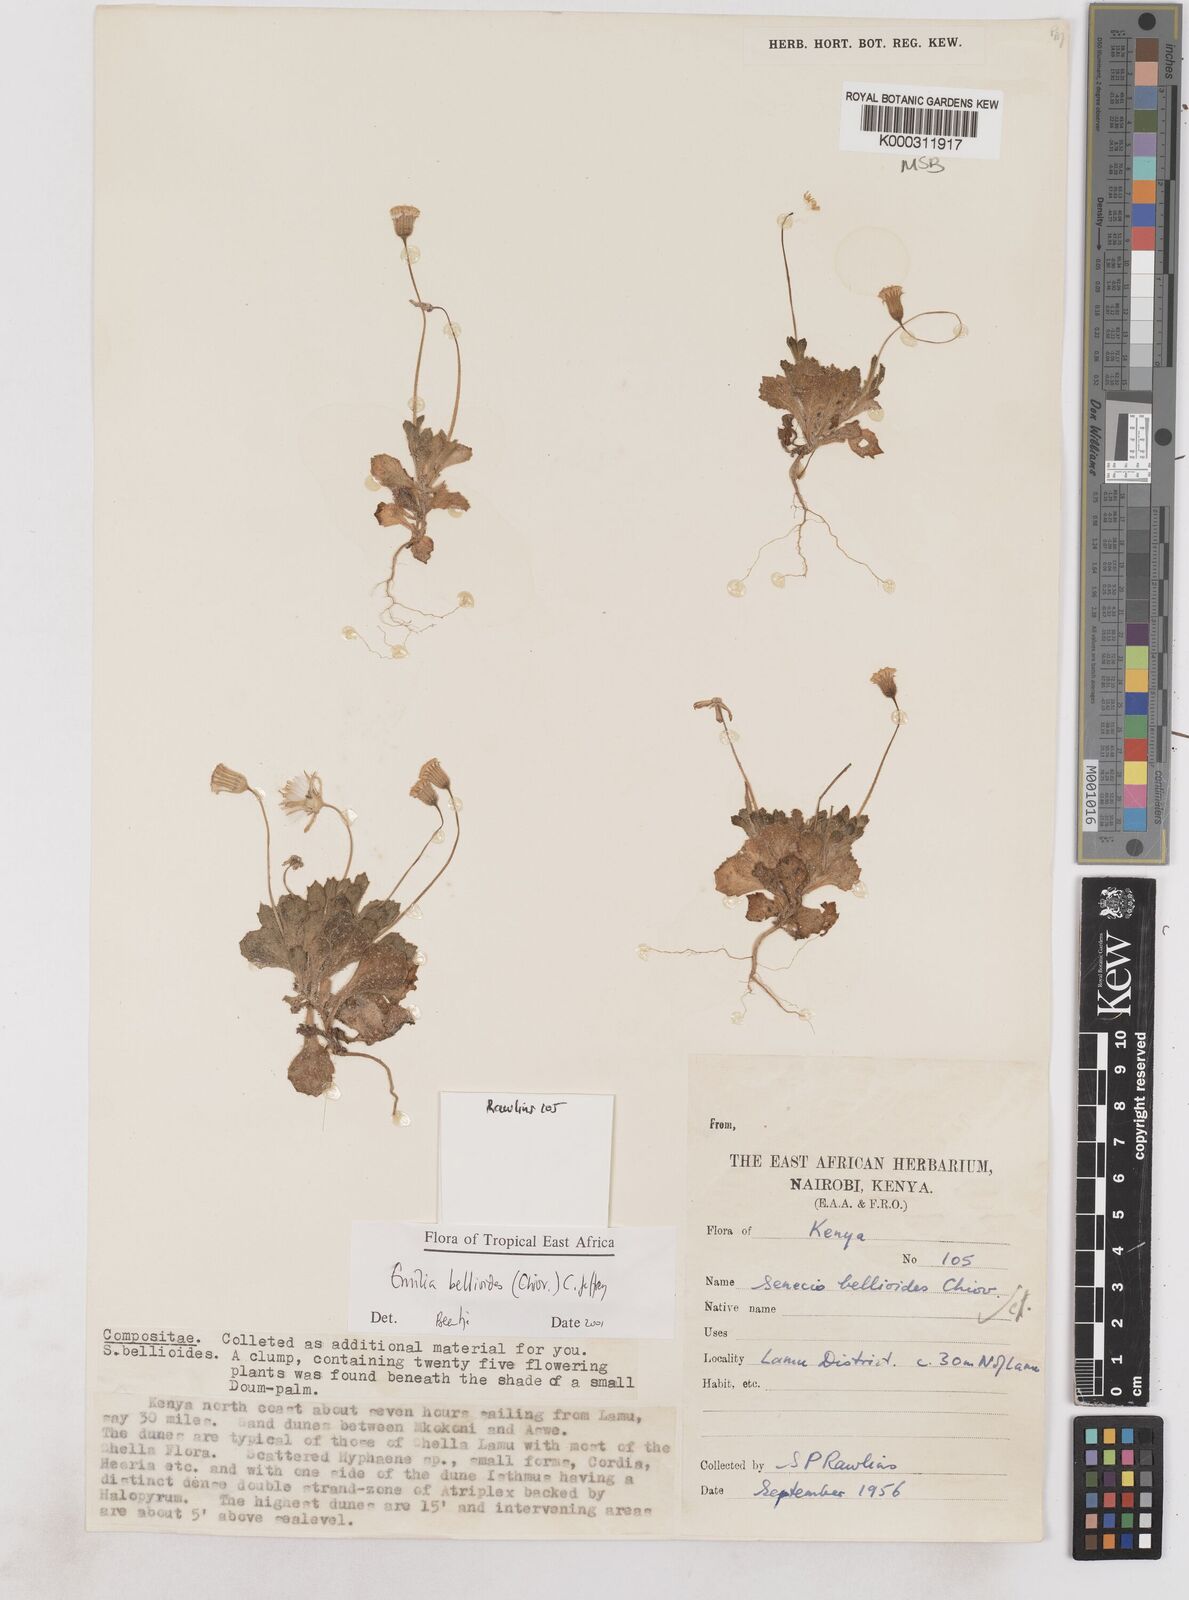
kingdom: Plantae
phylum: Tracheophyta
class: Magnoliopsida
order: Asterales
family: Asteraceae
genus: Emilia
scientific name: Emilia bellioides
